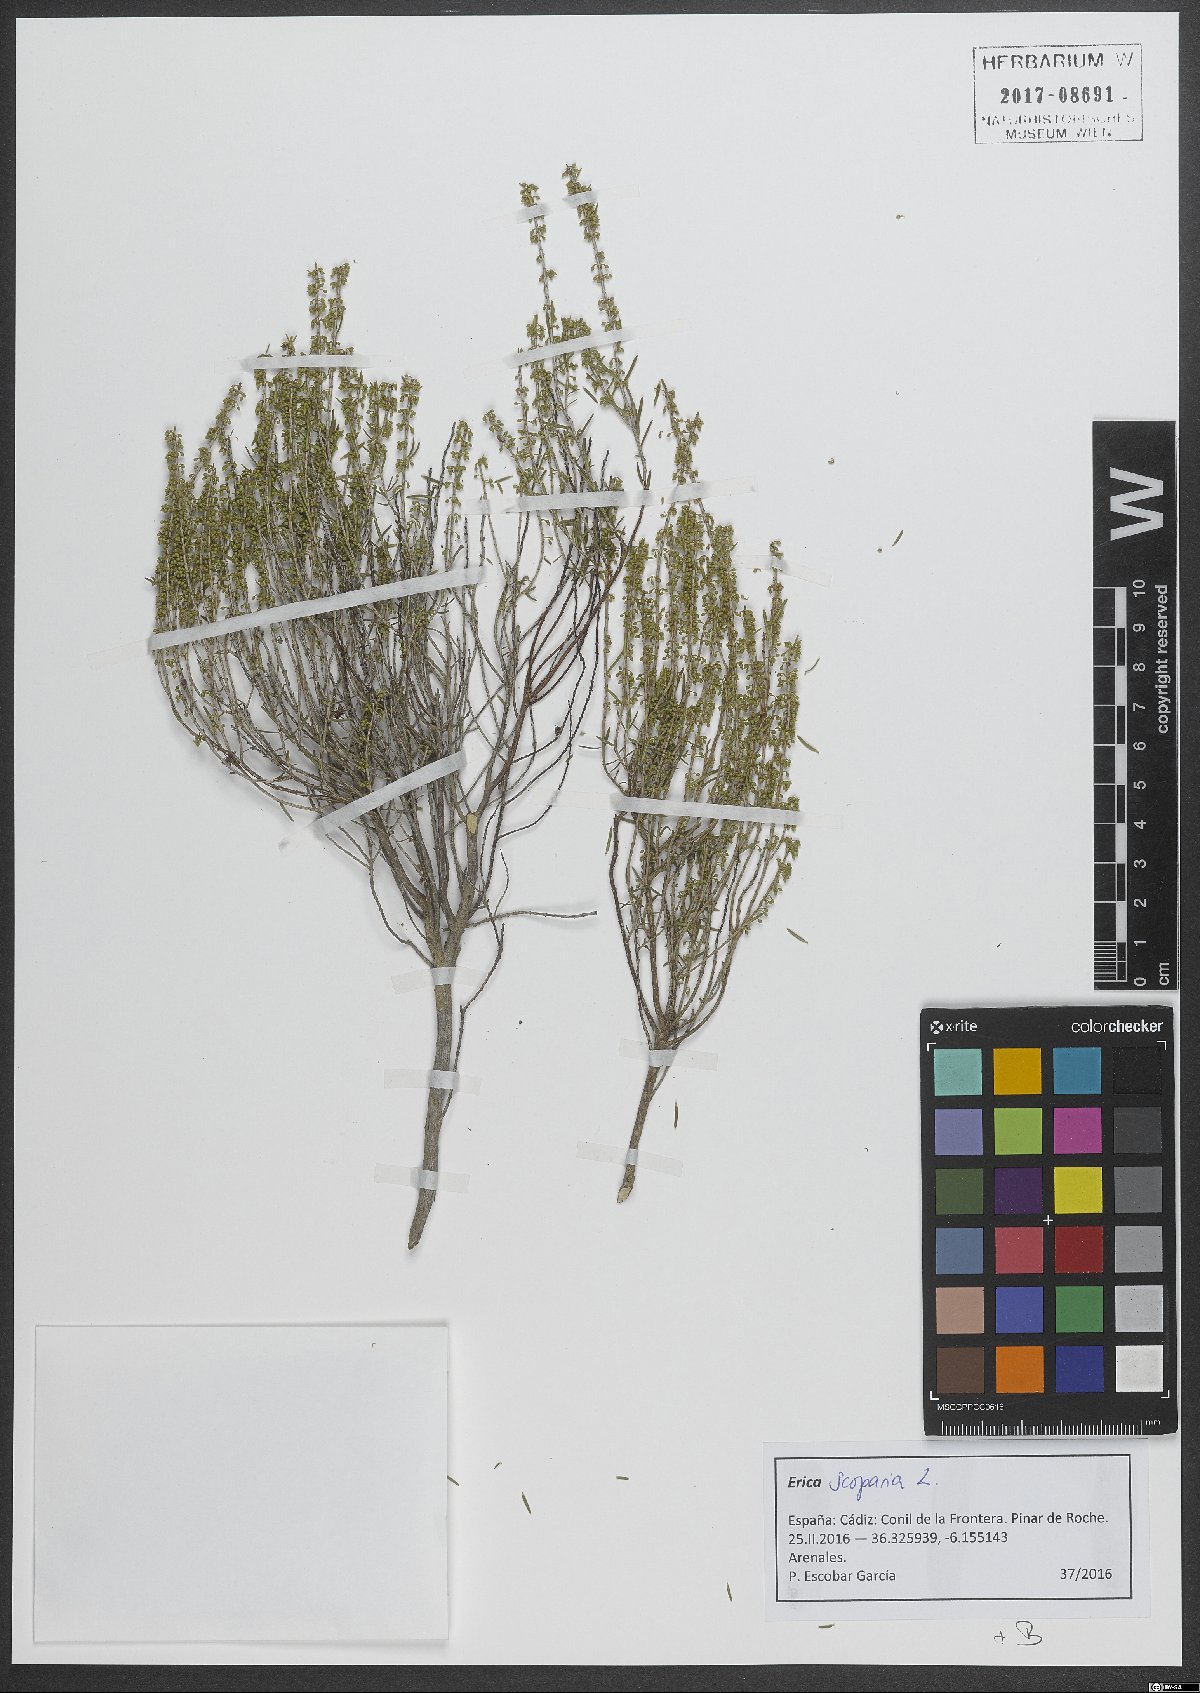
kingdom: Plantae
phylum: Tracheophyta
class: Magnoliopsida
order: Ericales
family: Ericaceae
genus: Erica
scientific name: Erica scoparia
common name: Green heather
